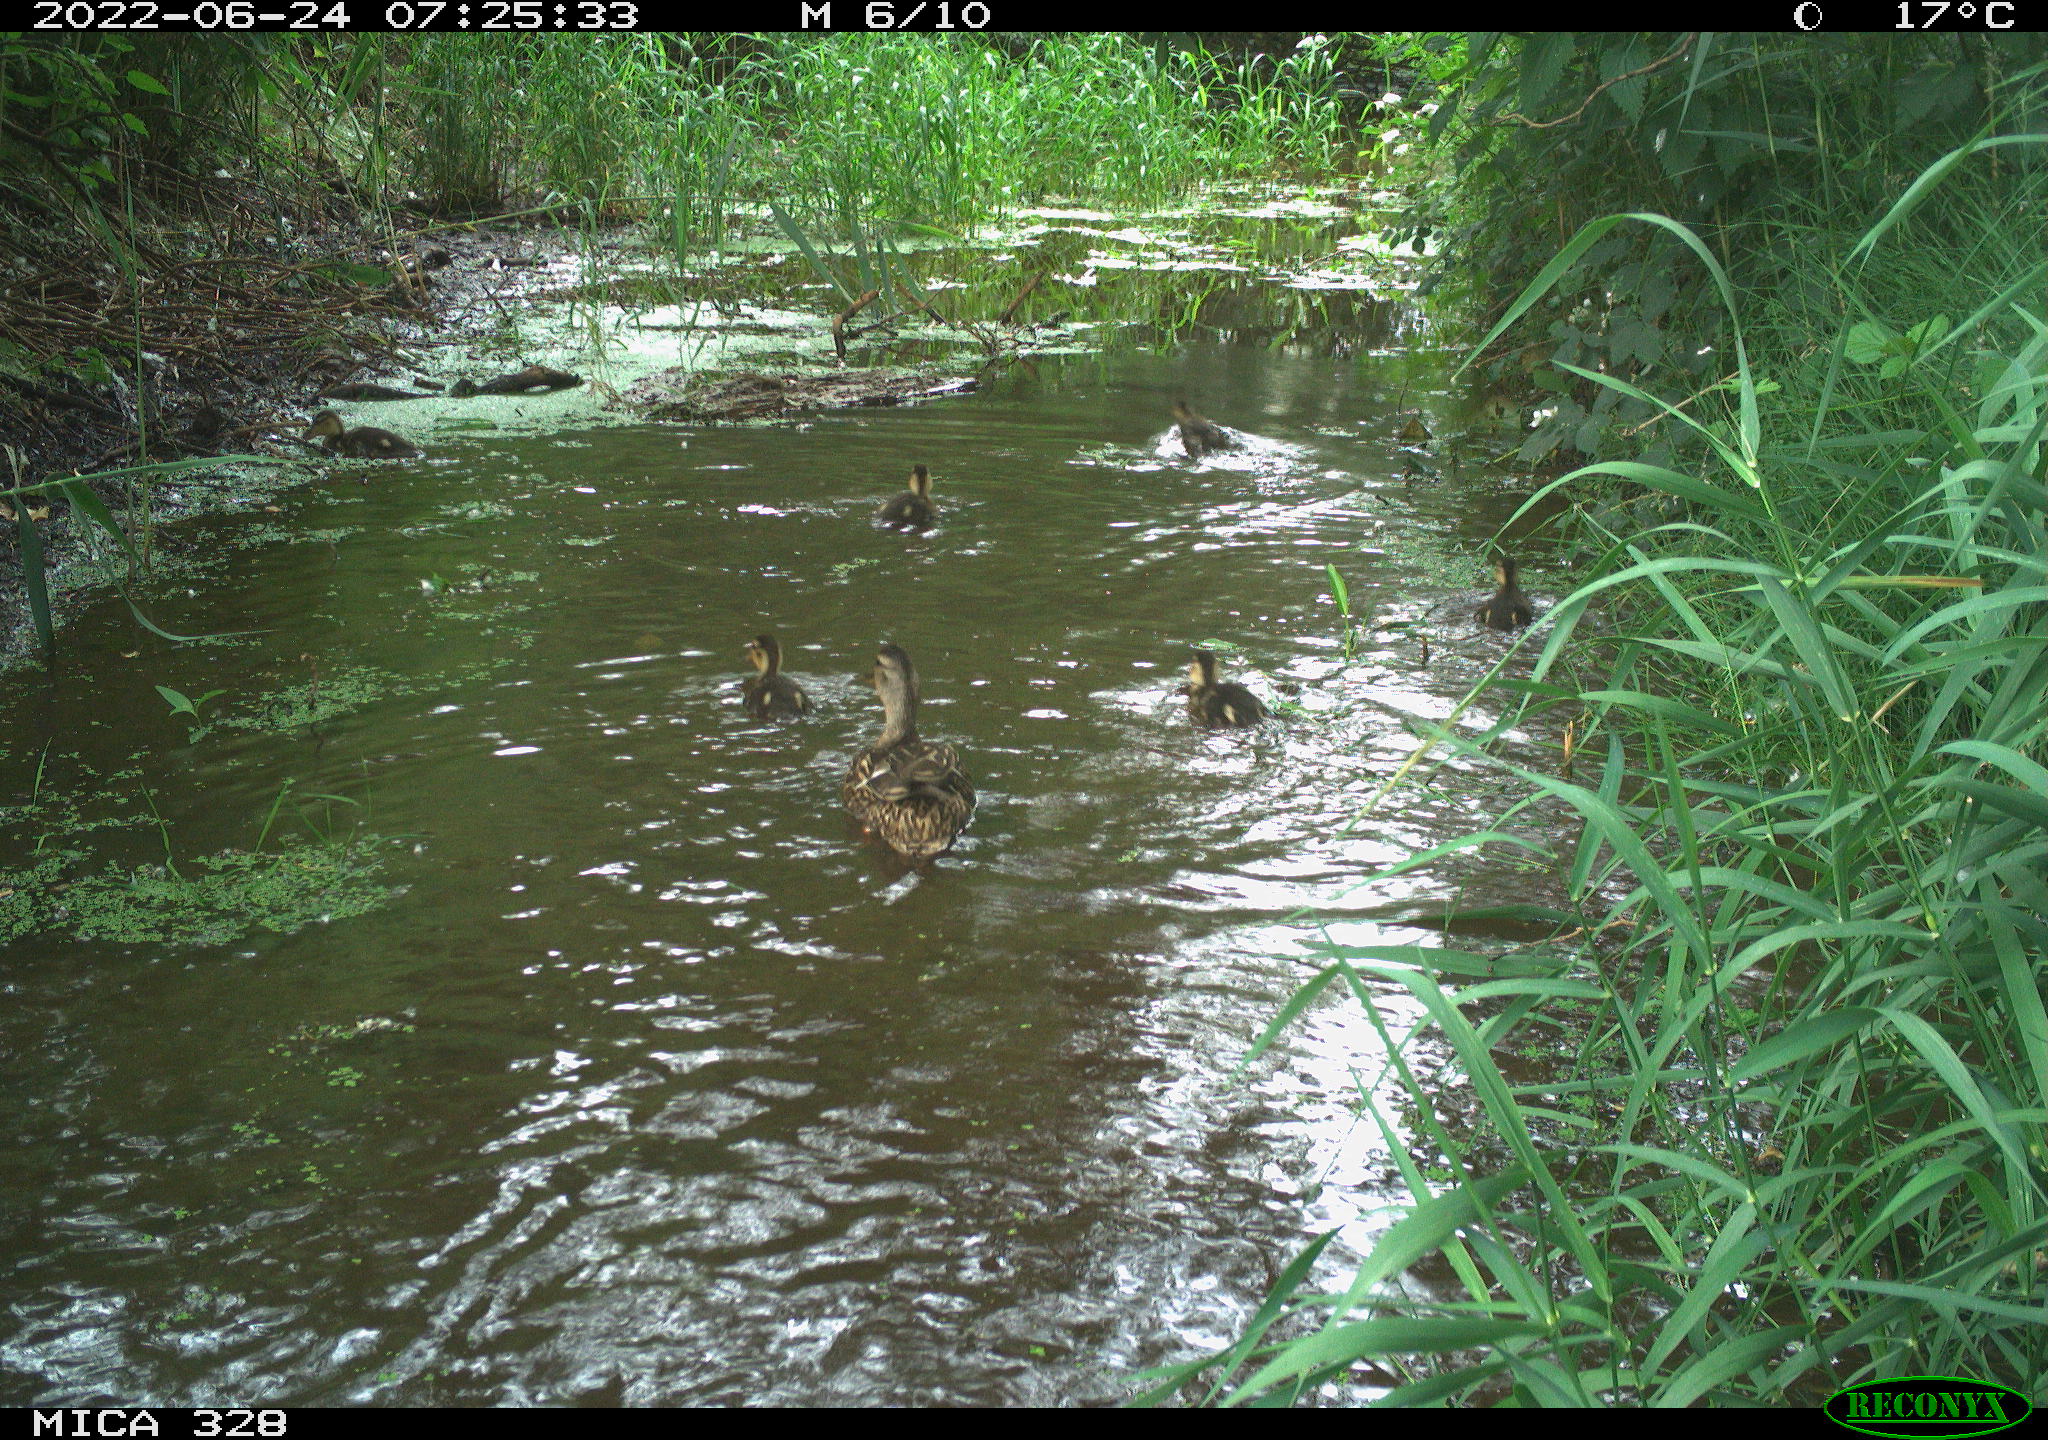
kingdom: Animalia
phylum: Chordata
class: Aves
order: Anseriformes
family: Anatidae
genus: Anas
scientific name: Anas
